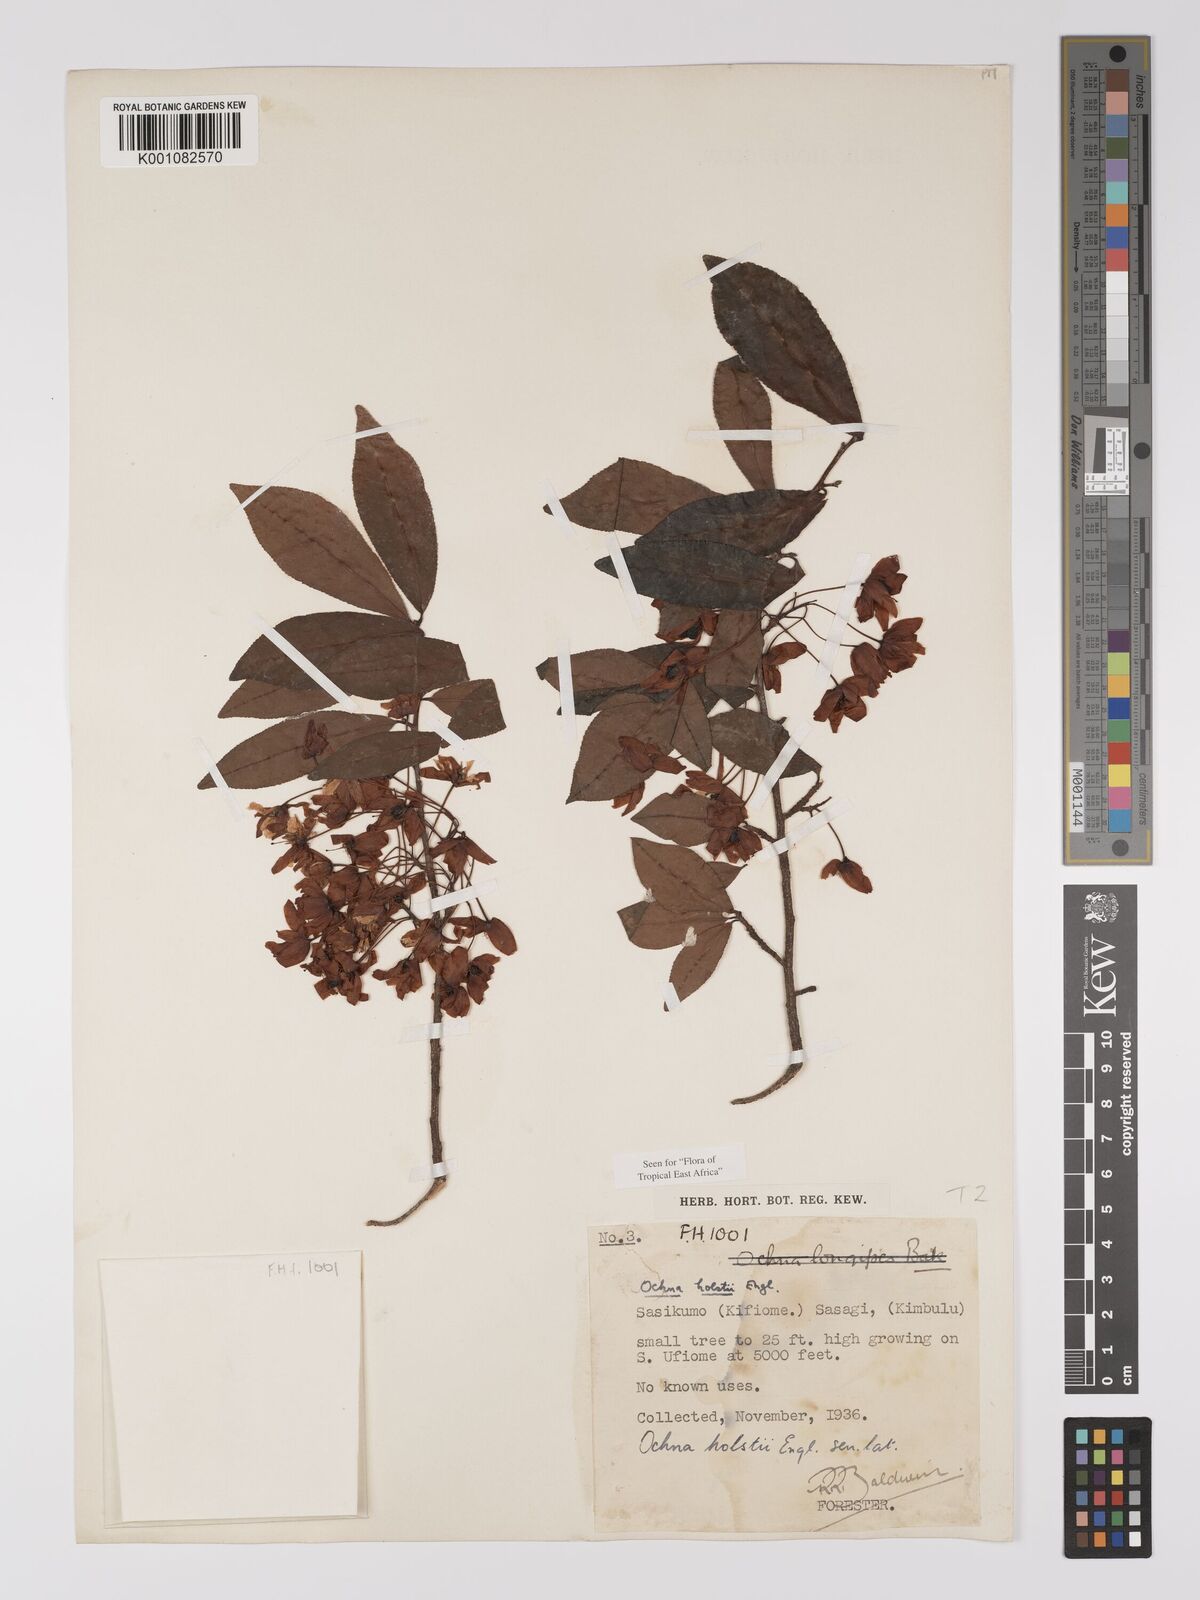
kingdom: Plantae
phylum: Tracheophyta
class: Magnoliopsida
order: Malpighiales
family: Ochnaceae
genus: Ochna
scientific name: Ochna holstii
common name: Red ironwood
